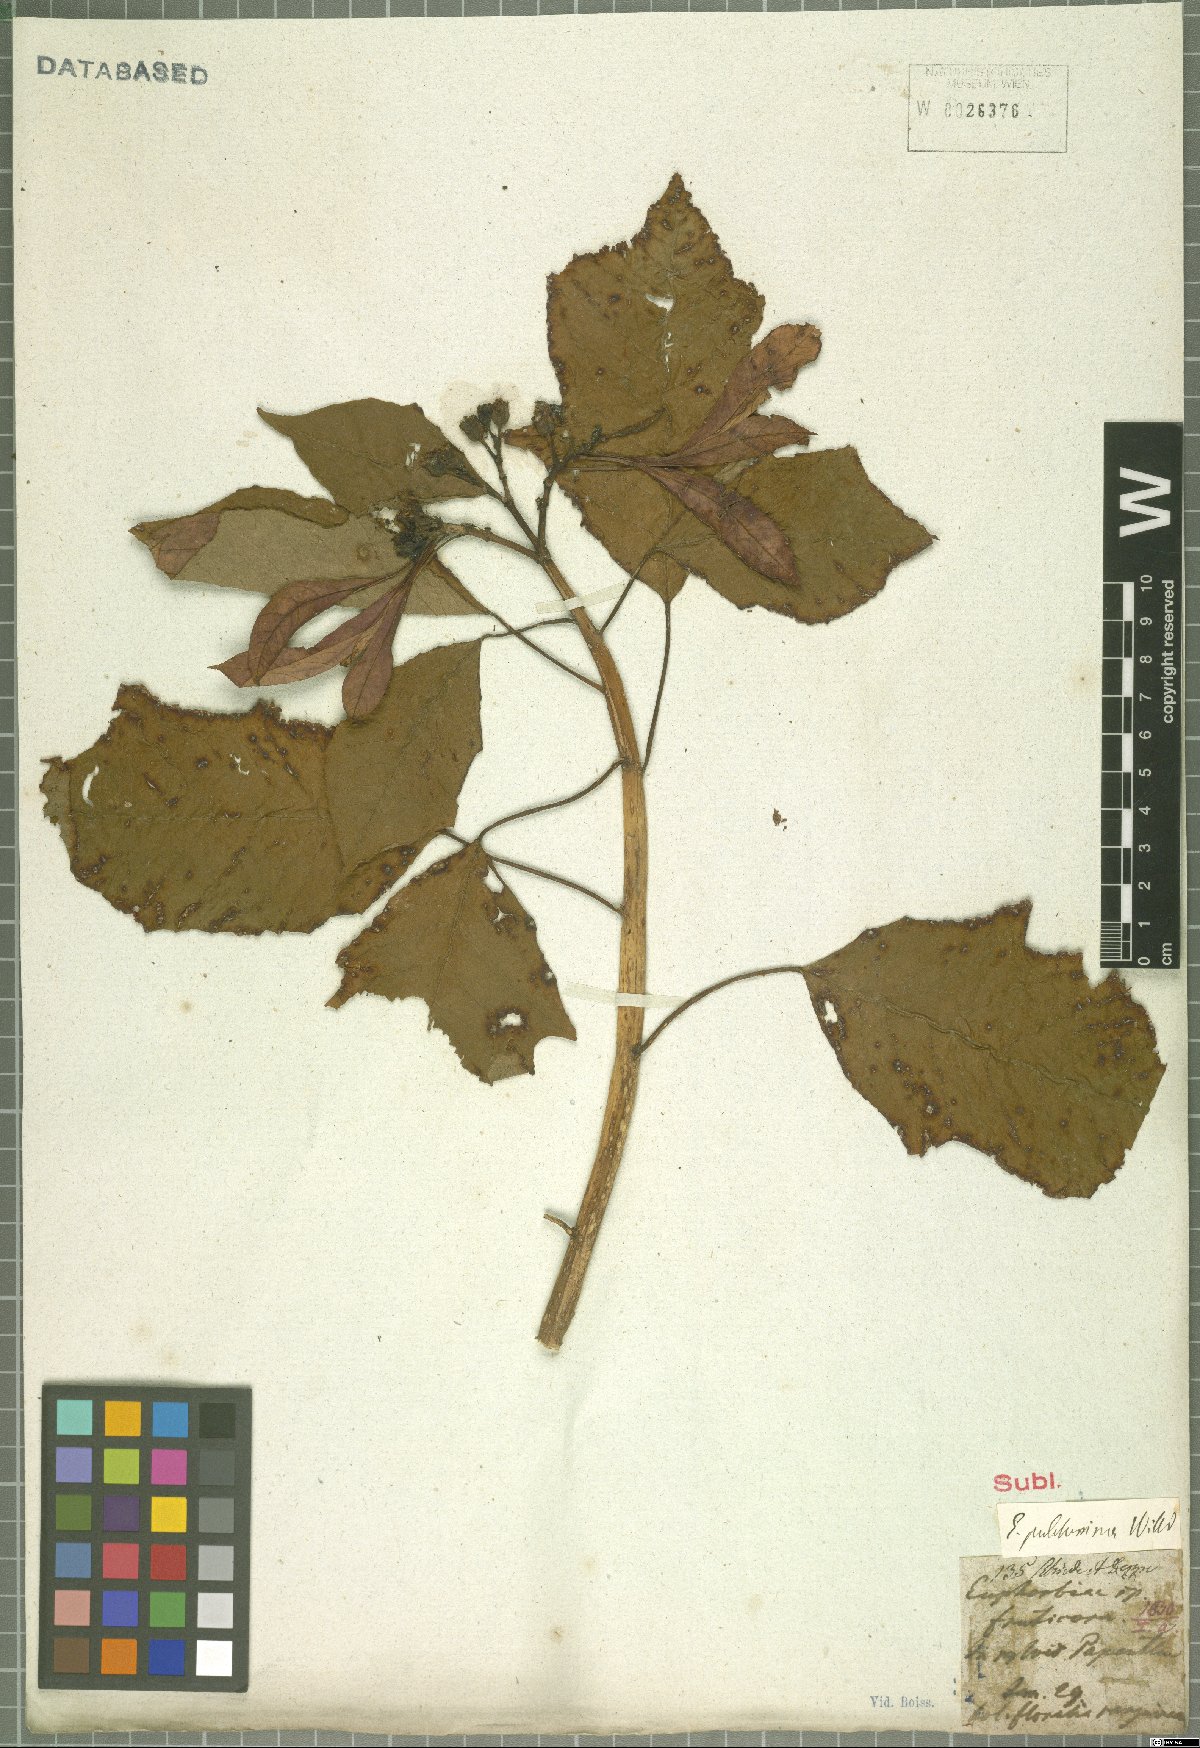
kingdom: Plantae
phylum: Tracheophyta
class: Magnoliopsida
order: Malpighiales
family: Euphorbiaceae
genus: Euphorbia
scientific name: Euphorbia pulcherrima
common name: Christmas-flower
